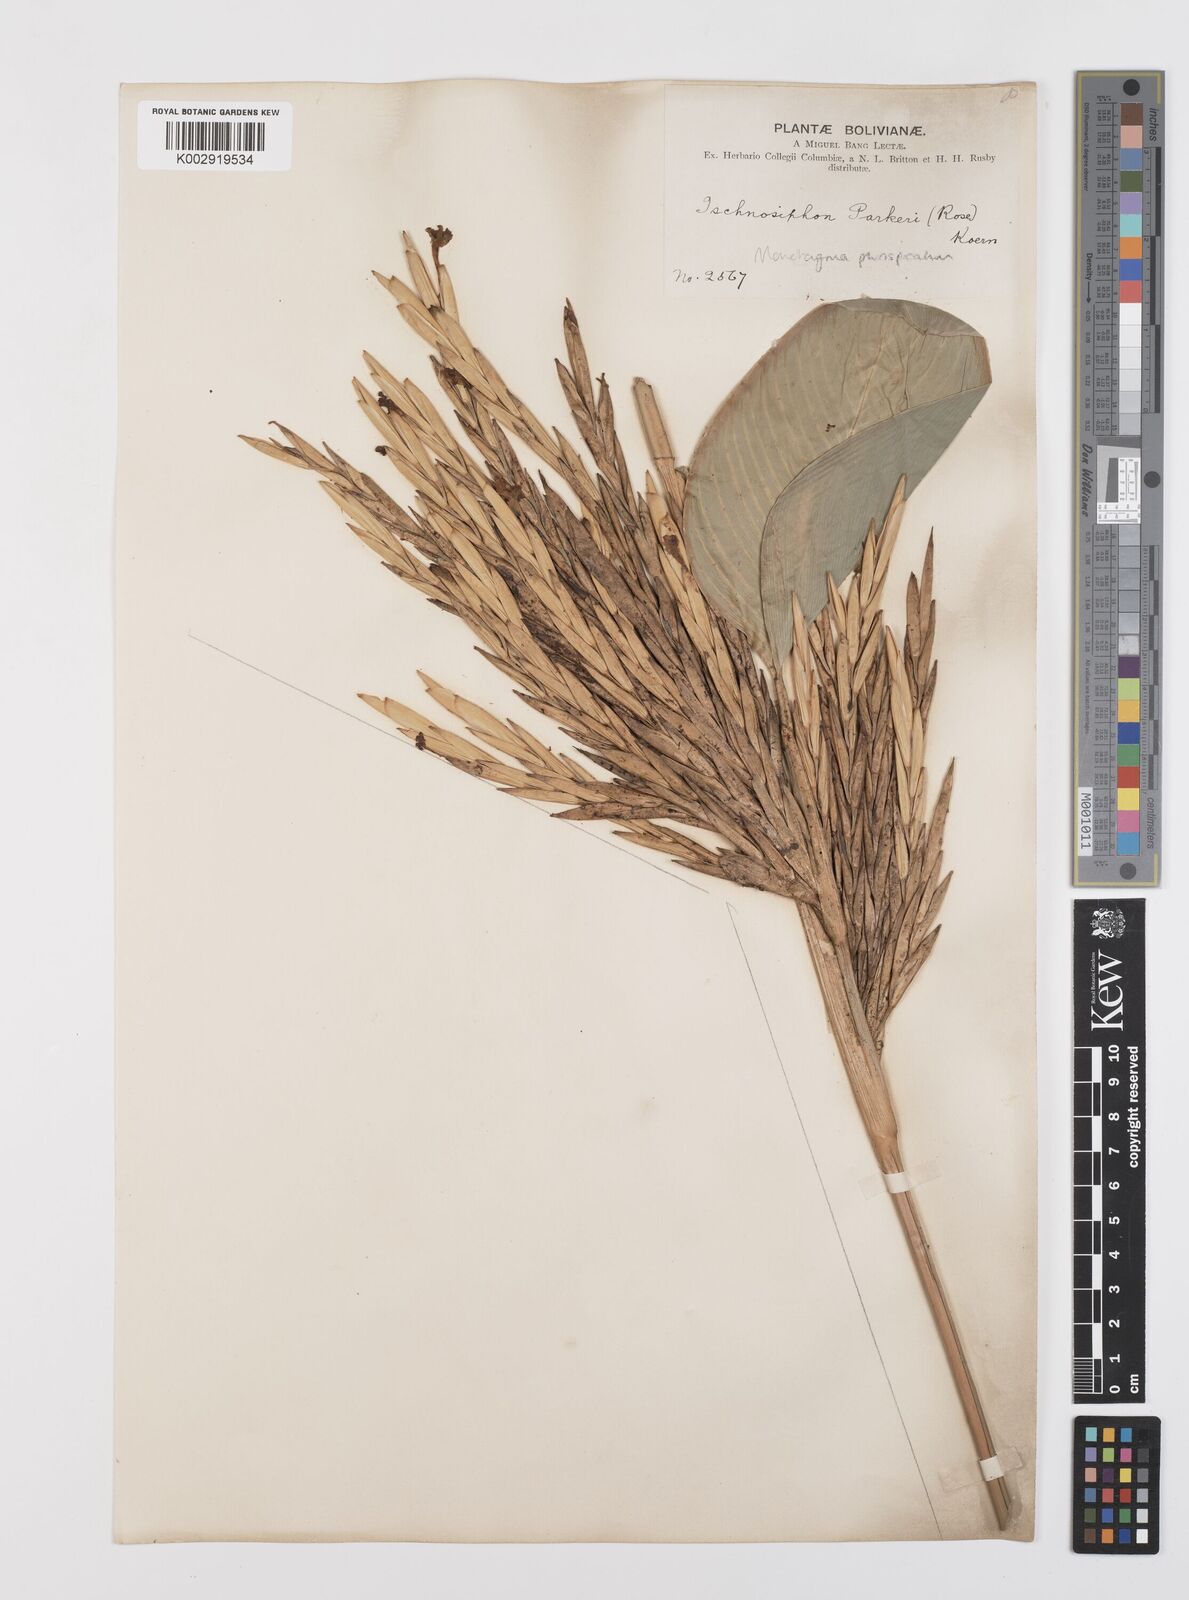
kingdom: Plantae
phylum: Tracheophyta
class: Liliopsida
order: Zingiberales
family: Marantaceae
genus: Monotagma
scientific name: Monotagma plurispicatum
